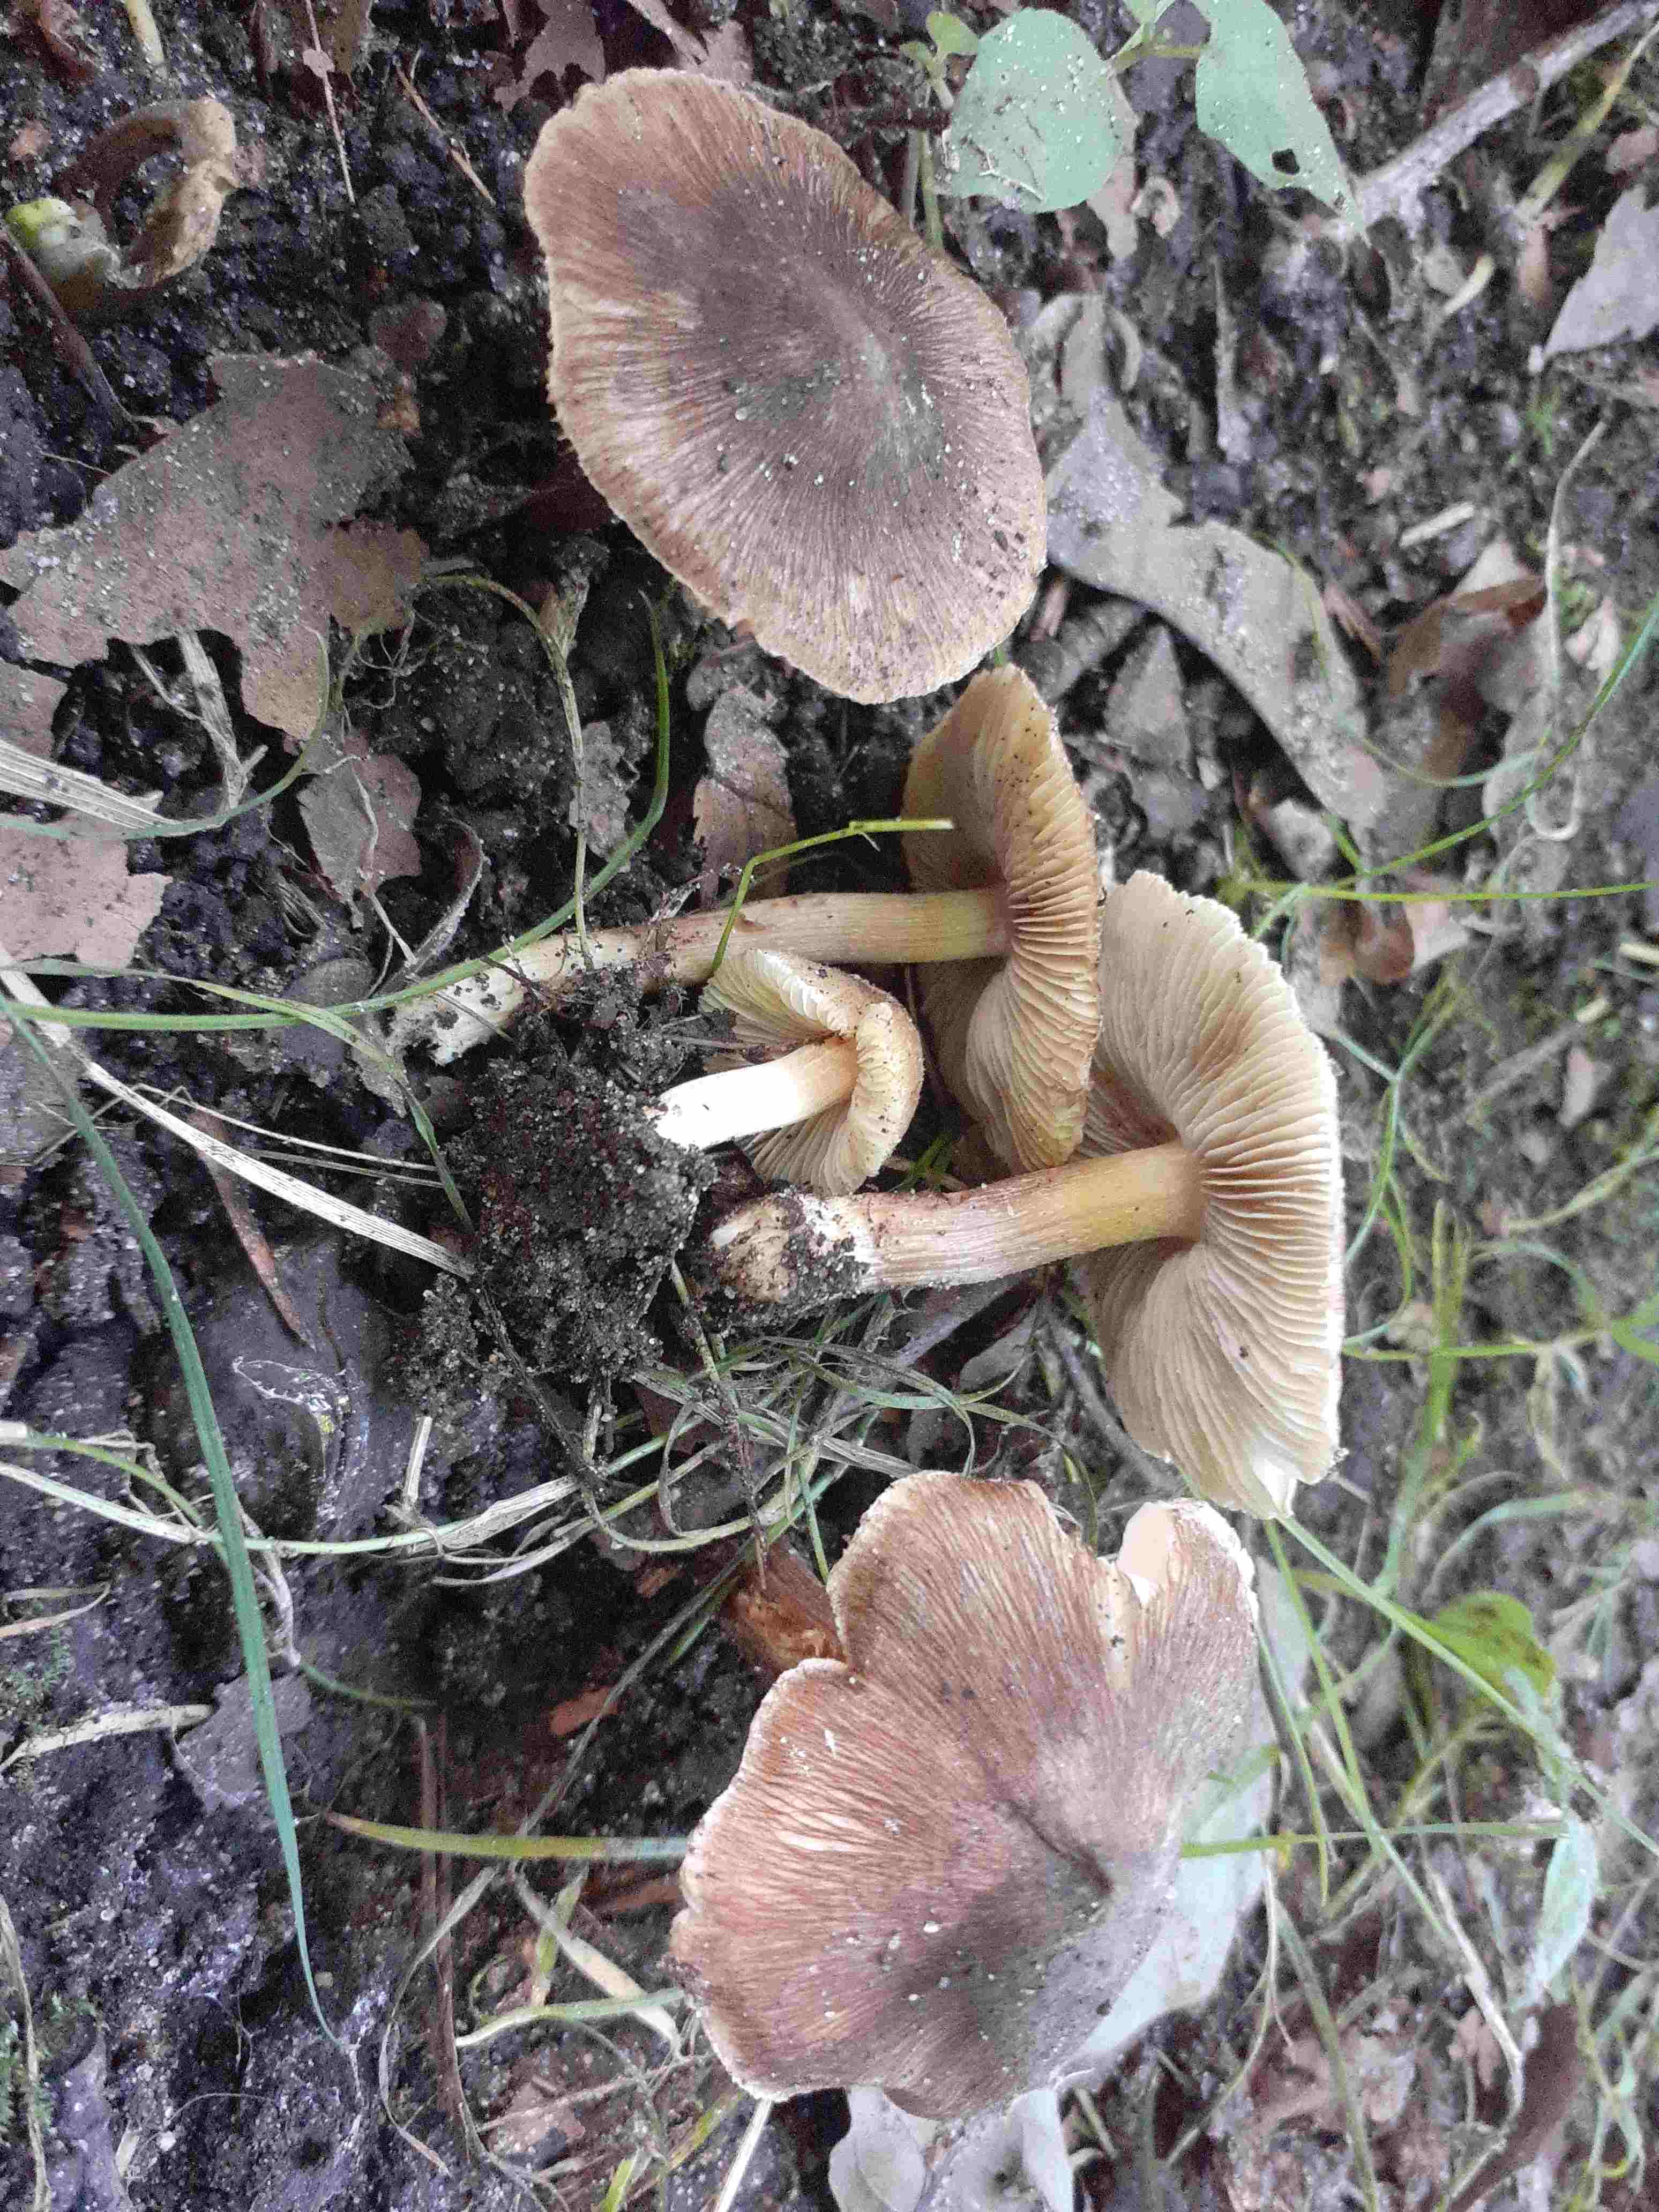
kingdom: Fungi
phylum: Basidiomycota
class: Agaricomycetes
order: Agaricales
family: Inocybaceae
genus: Inosperma
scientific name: Inosperma maculatum
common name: plettet trævlhat
